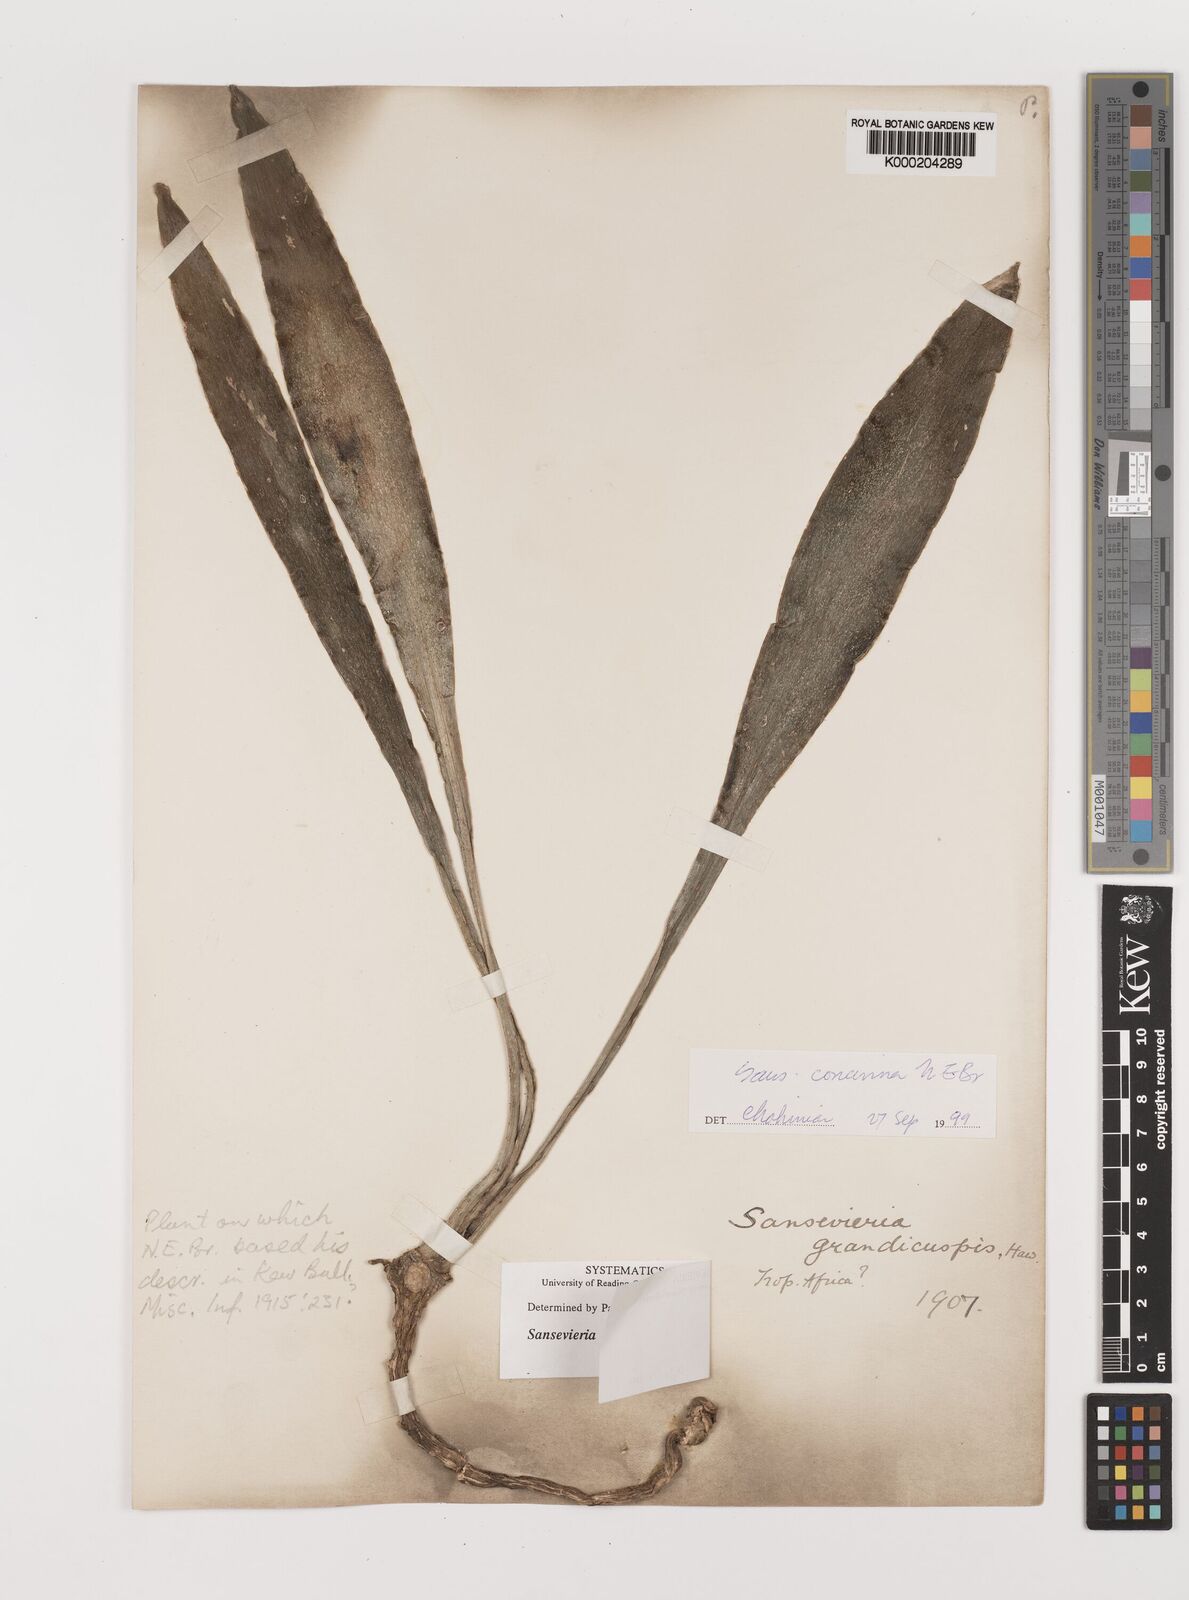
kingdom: Plantae
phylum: Tracheophyta
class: Liliopsida
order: Asparagales
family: Asparagaceae
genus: Dracaena
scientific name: Dracaena zeylanica
